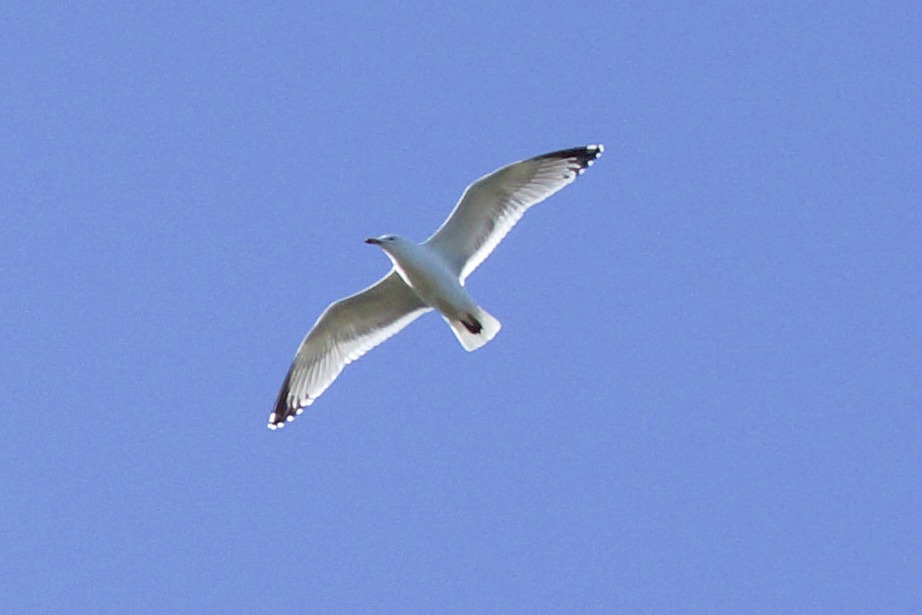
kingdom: Animalia
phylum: Chordata
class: Aves
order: Charadriiformes
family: Laridae
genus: Larus
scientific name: Larus argentatus
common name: Sølvmåge
